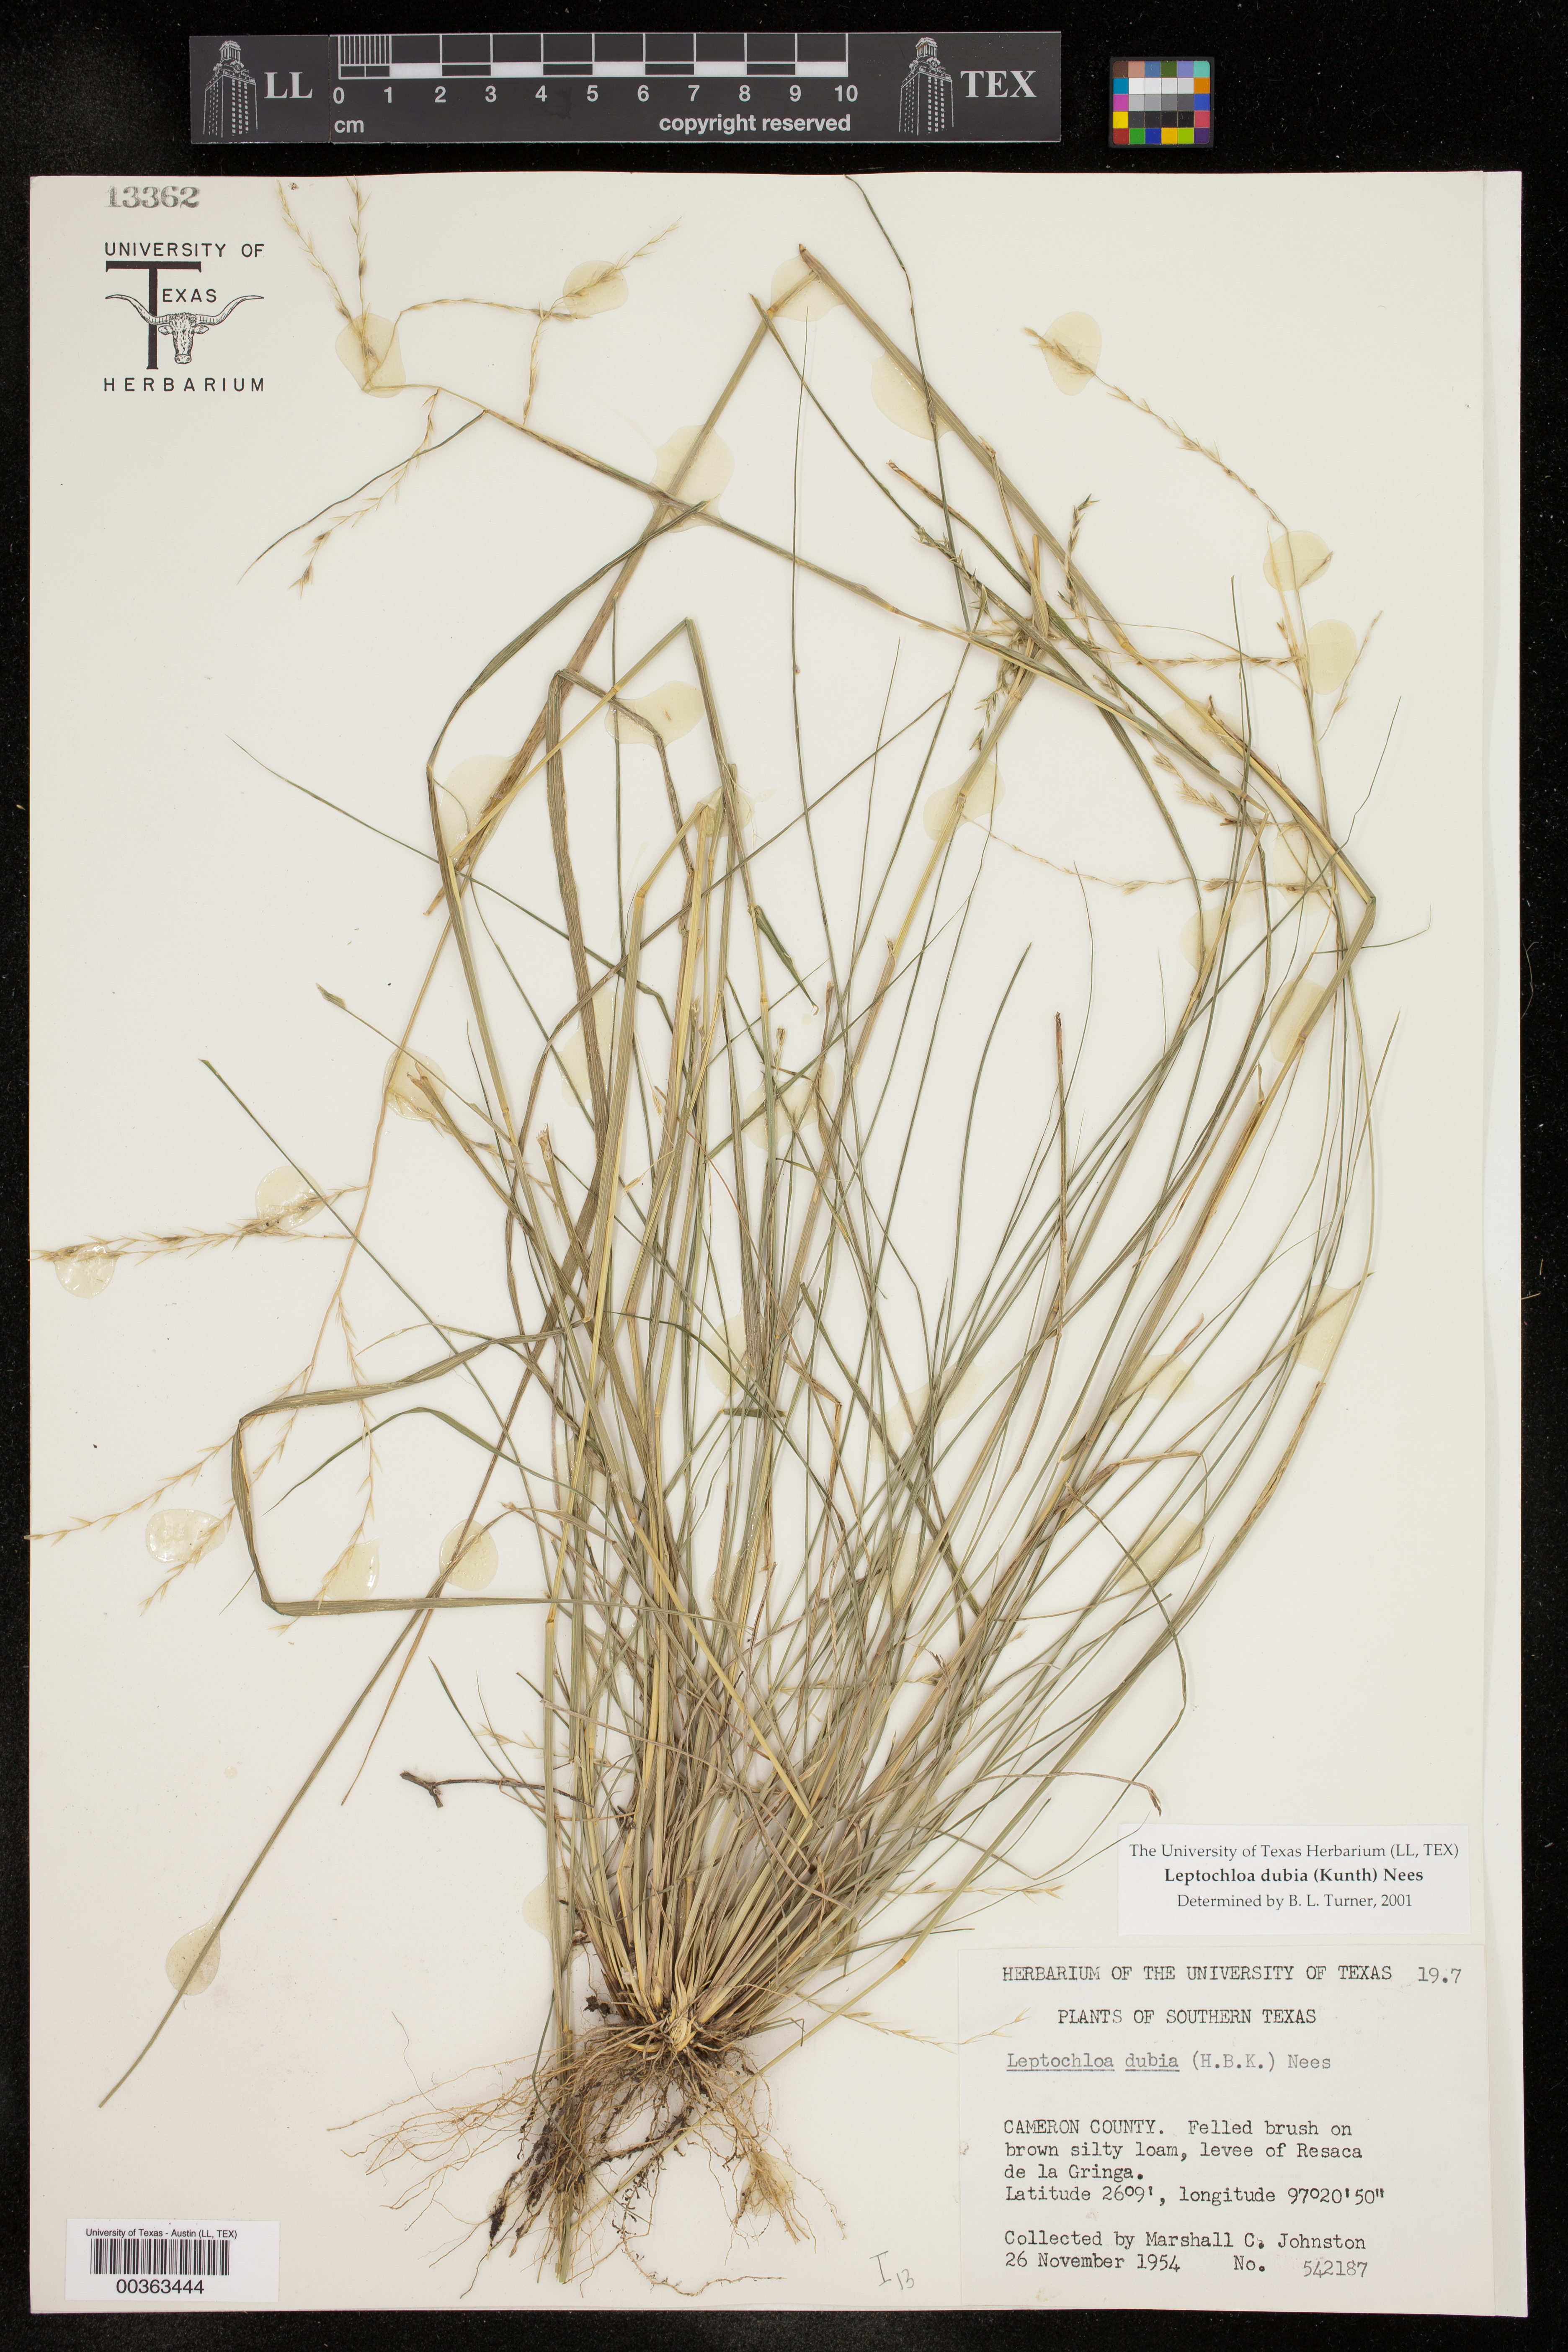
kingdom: Plantae
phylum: Tracheophyta
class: Liliopsida
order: Poales
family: Poaceae
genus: Disakisperma
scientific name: Disakisperma dubium
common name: Green sprangletop
